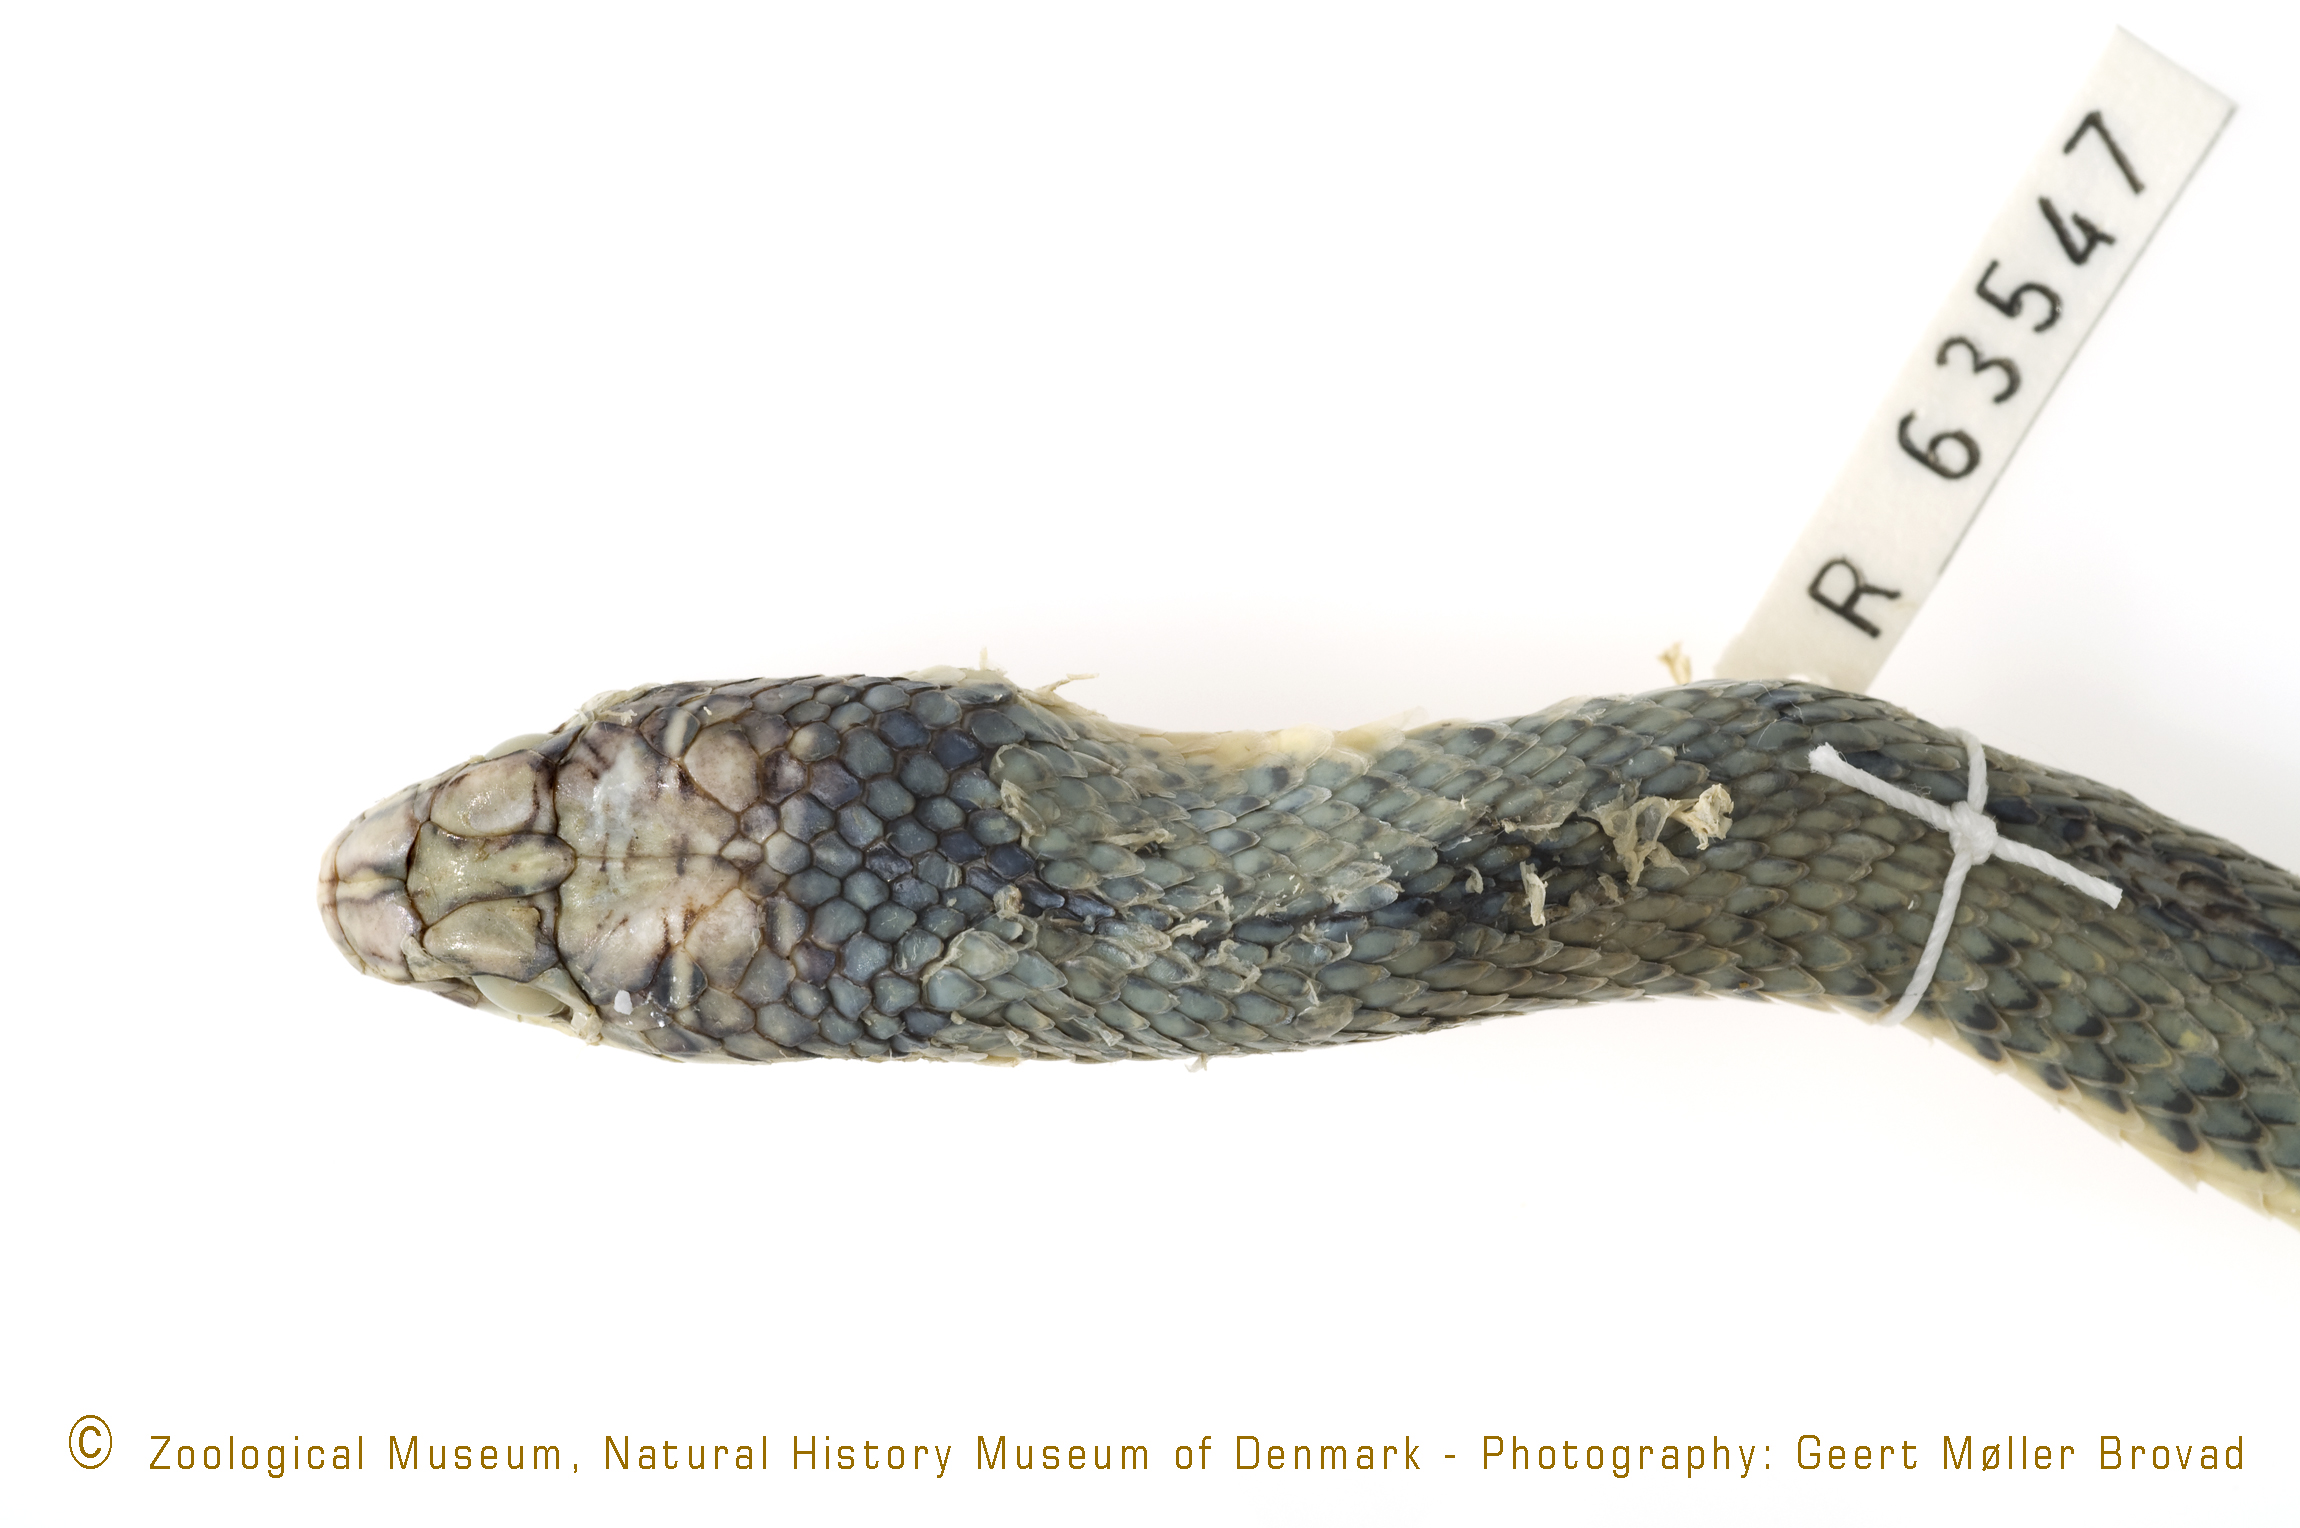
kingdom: Animalia
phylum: Chordata
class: Squamata
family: Psammophiidae
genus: Psammophis
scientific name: Psammophis sibilans
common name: Egyptian hissing sand snake
